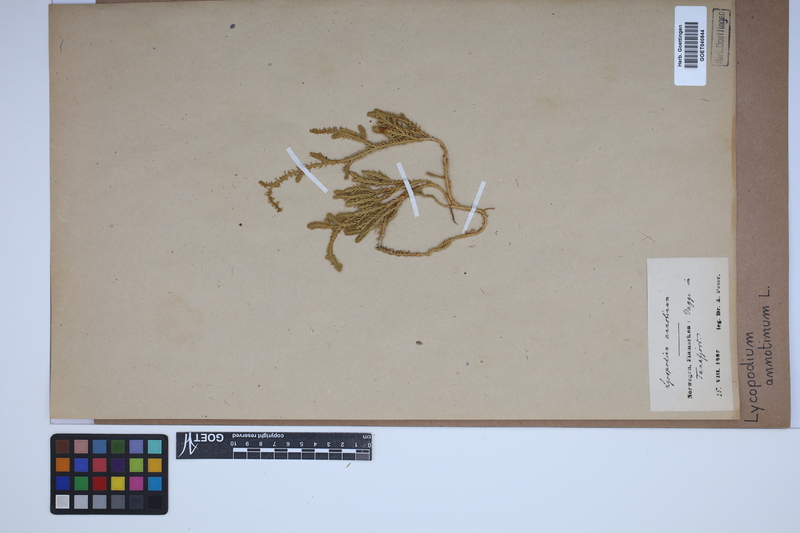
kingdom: Plantae
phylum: Tracheophyta
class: Lycopodiopsida
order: Lycopodiales
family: Lycopodiaceae
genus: Spinulum
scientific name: Spinulum annotinum
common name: Interrupted club-moss
